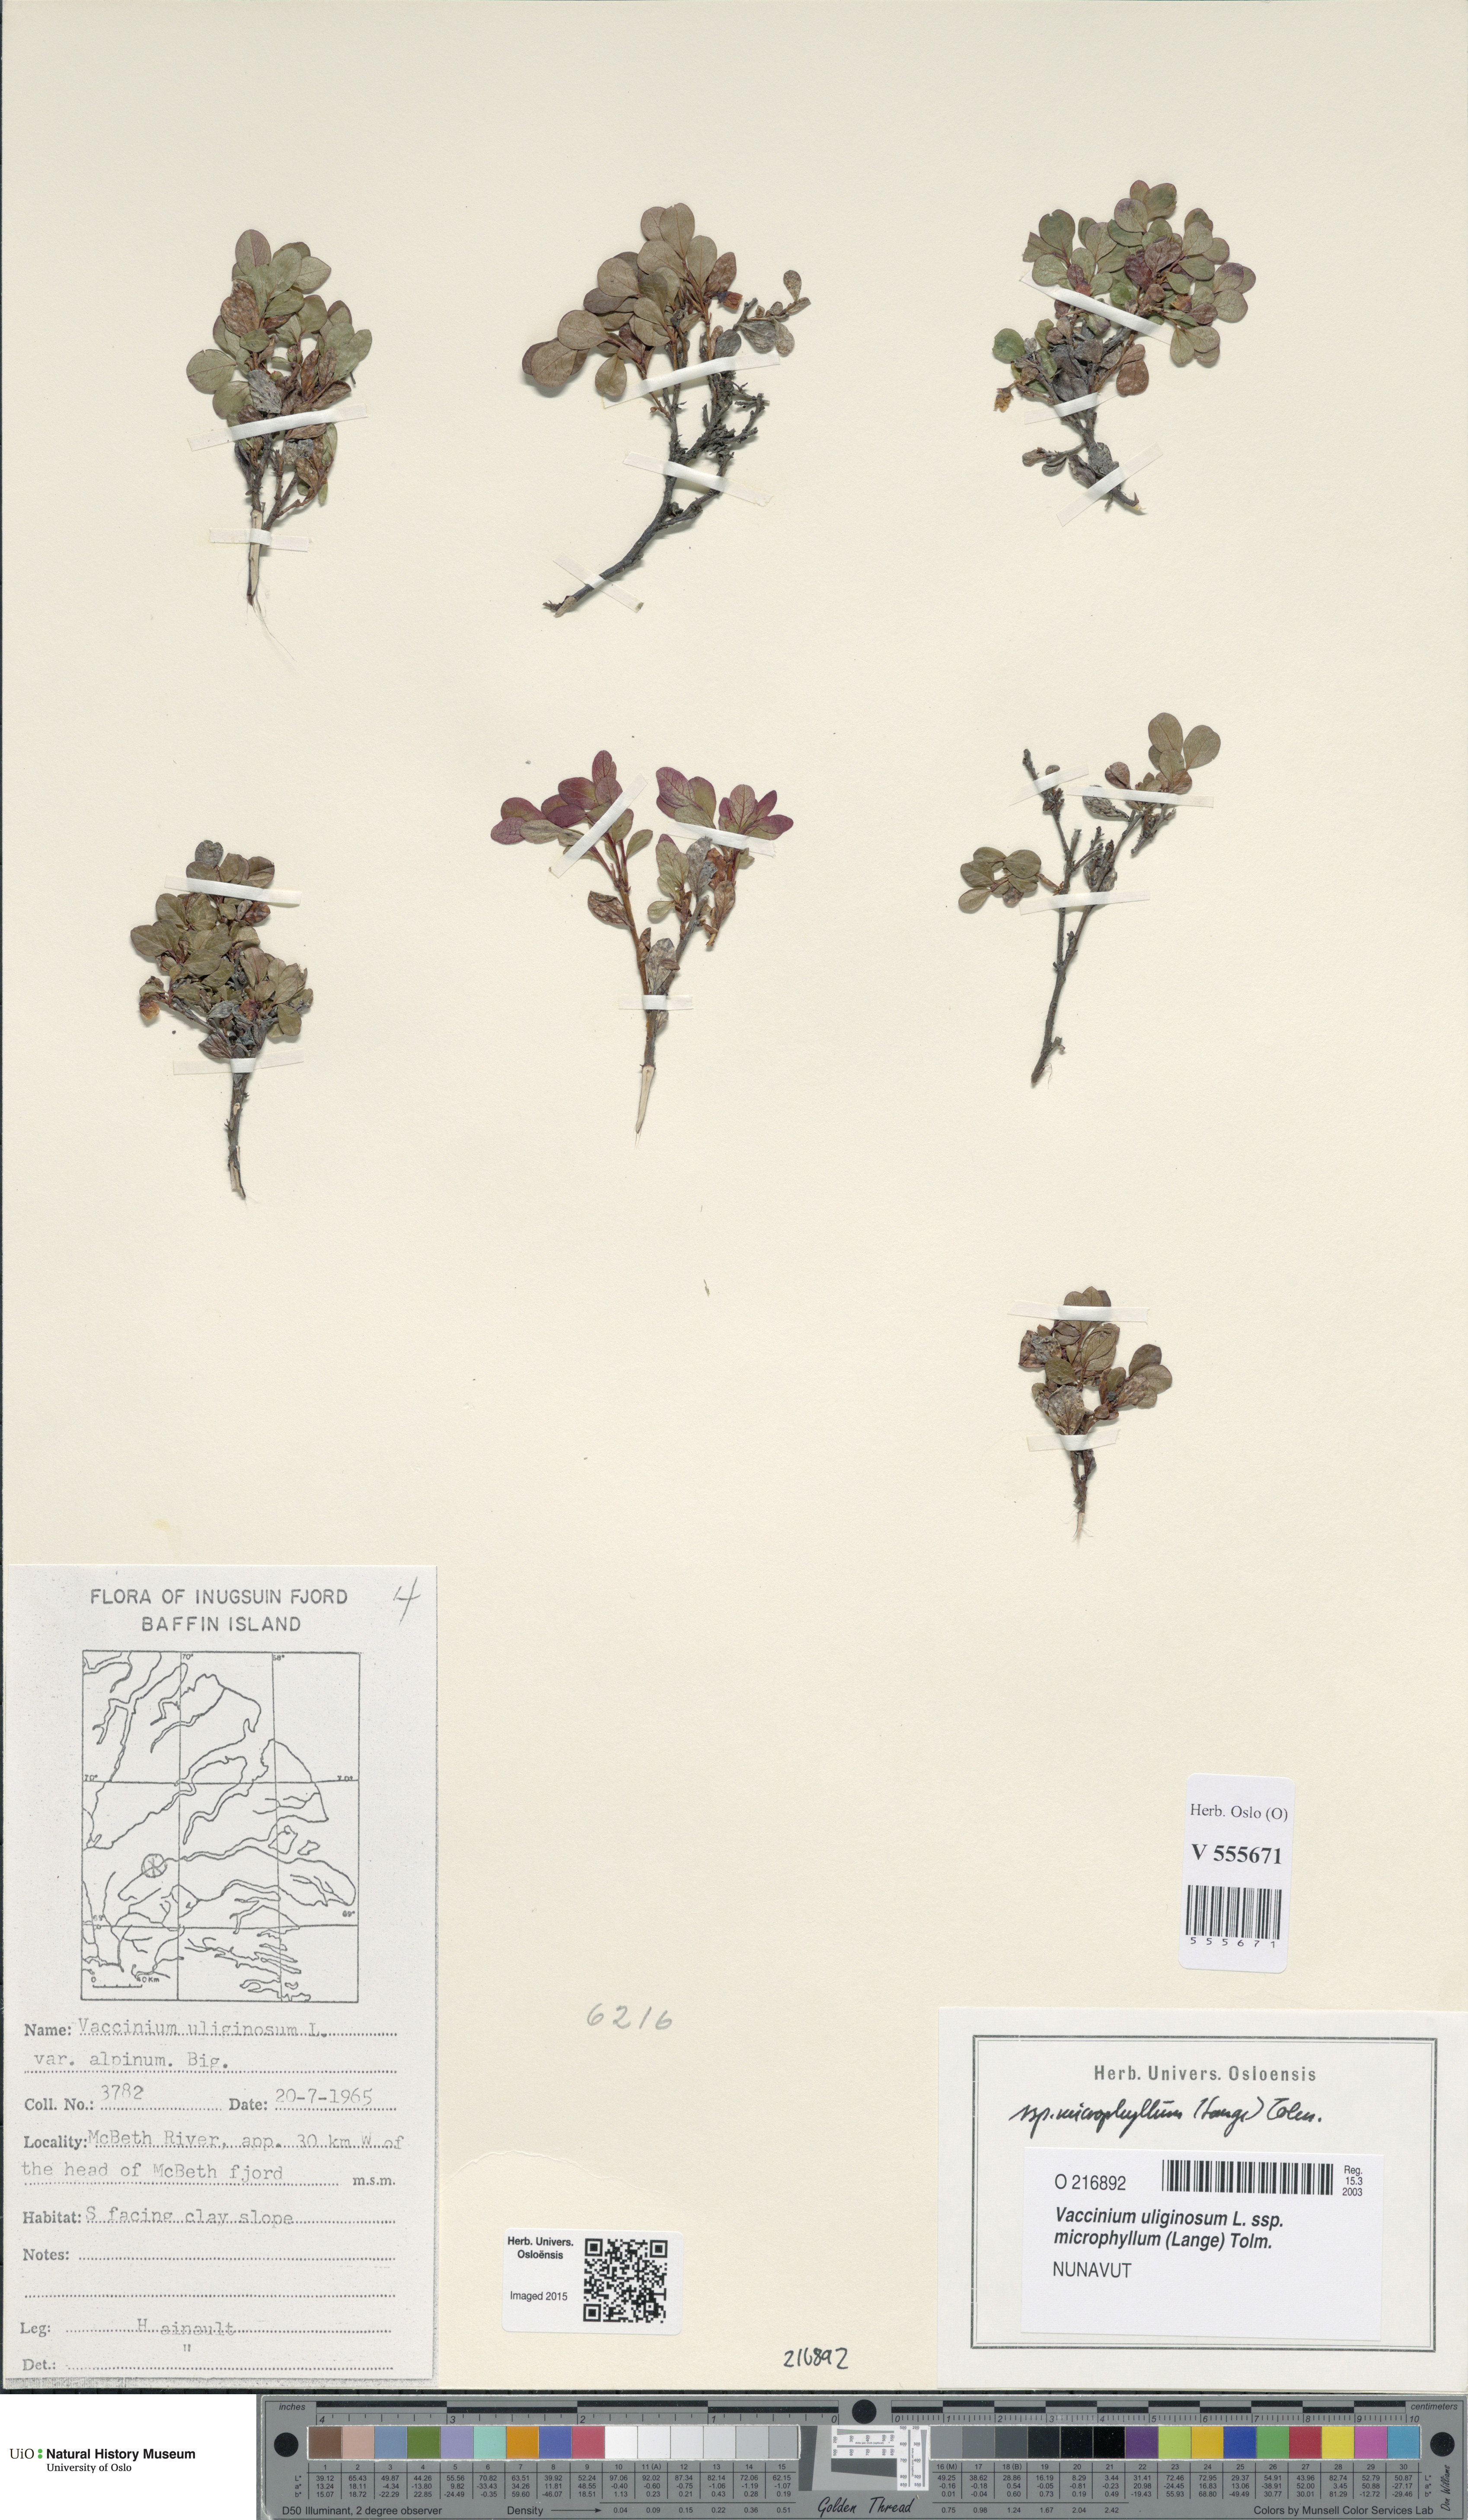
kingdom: Plantae
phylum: Tracheophyta
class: Magnoliopsida
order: Ericales
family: Ericaceae
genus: Vaccinium
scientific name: Vaccinium gaultherioides
